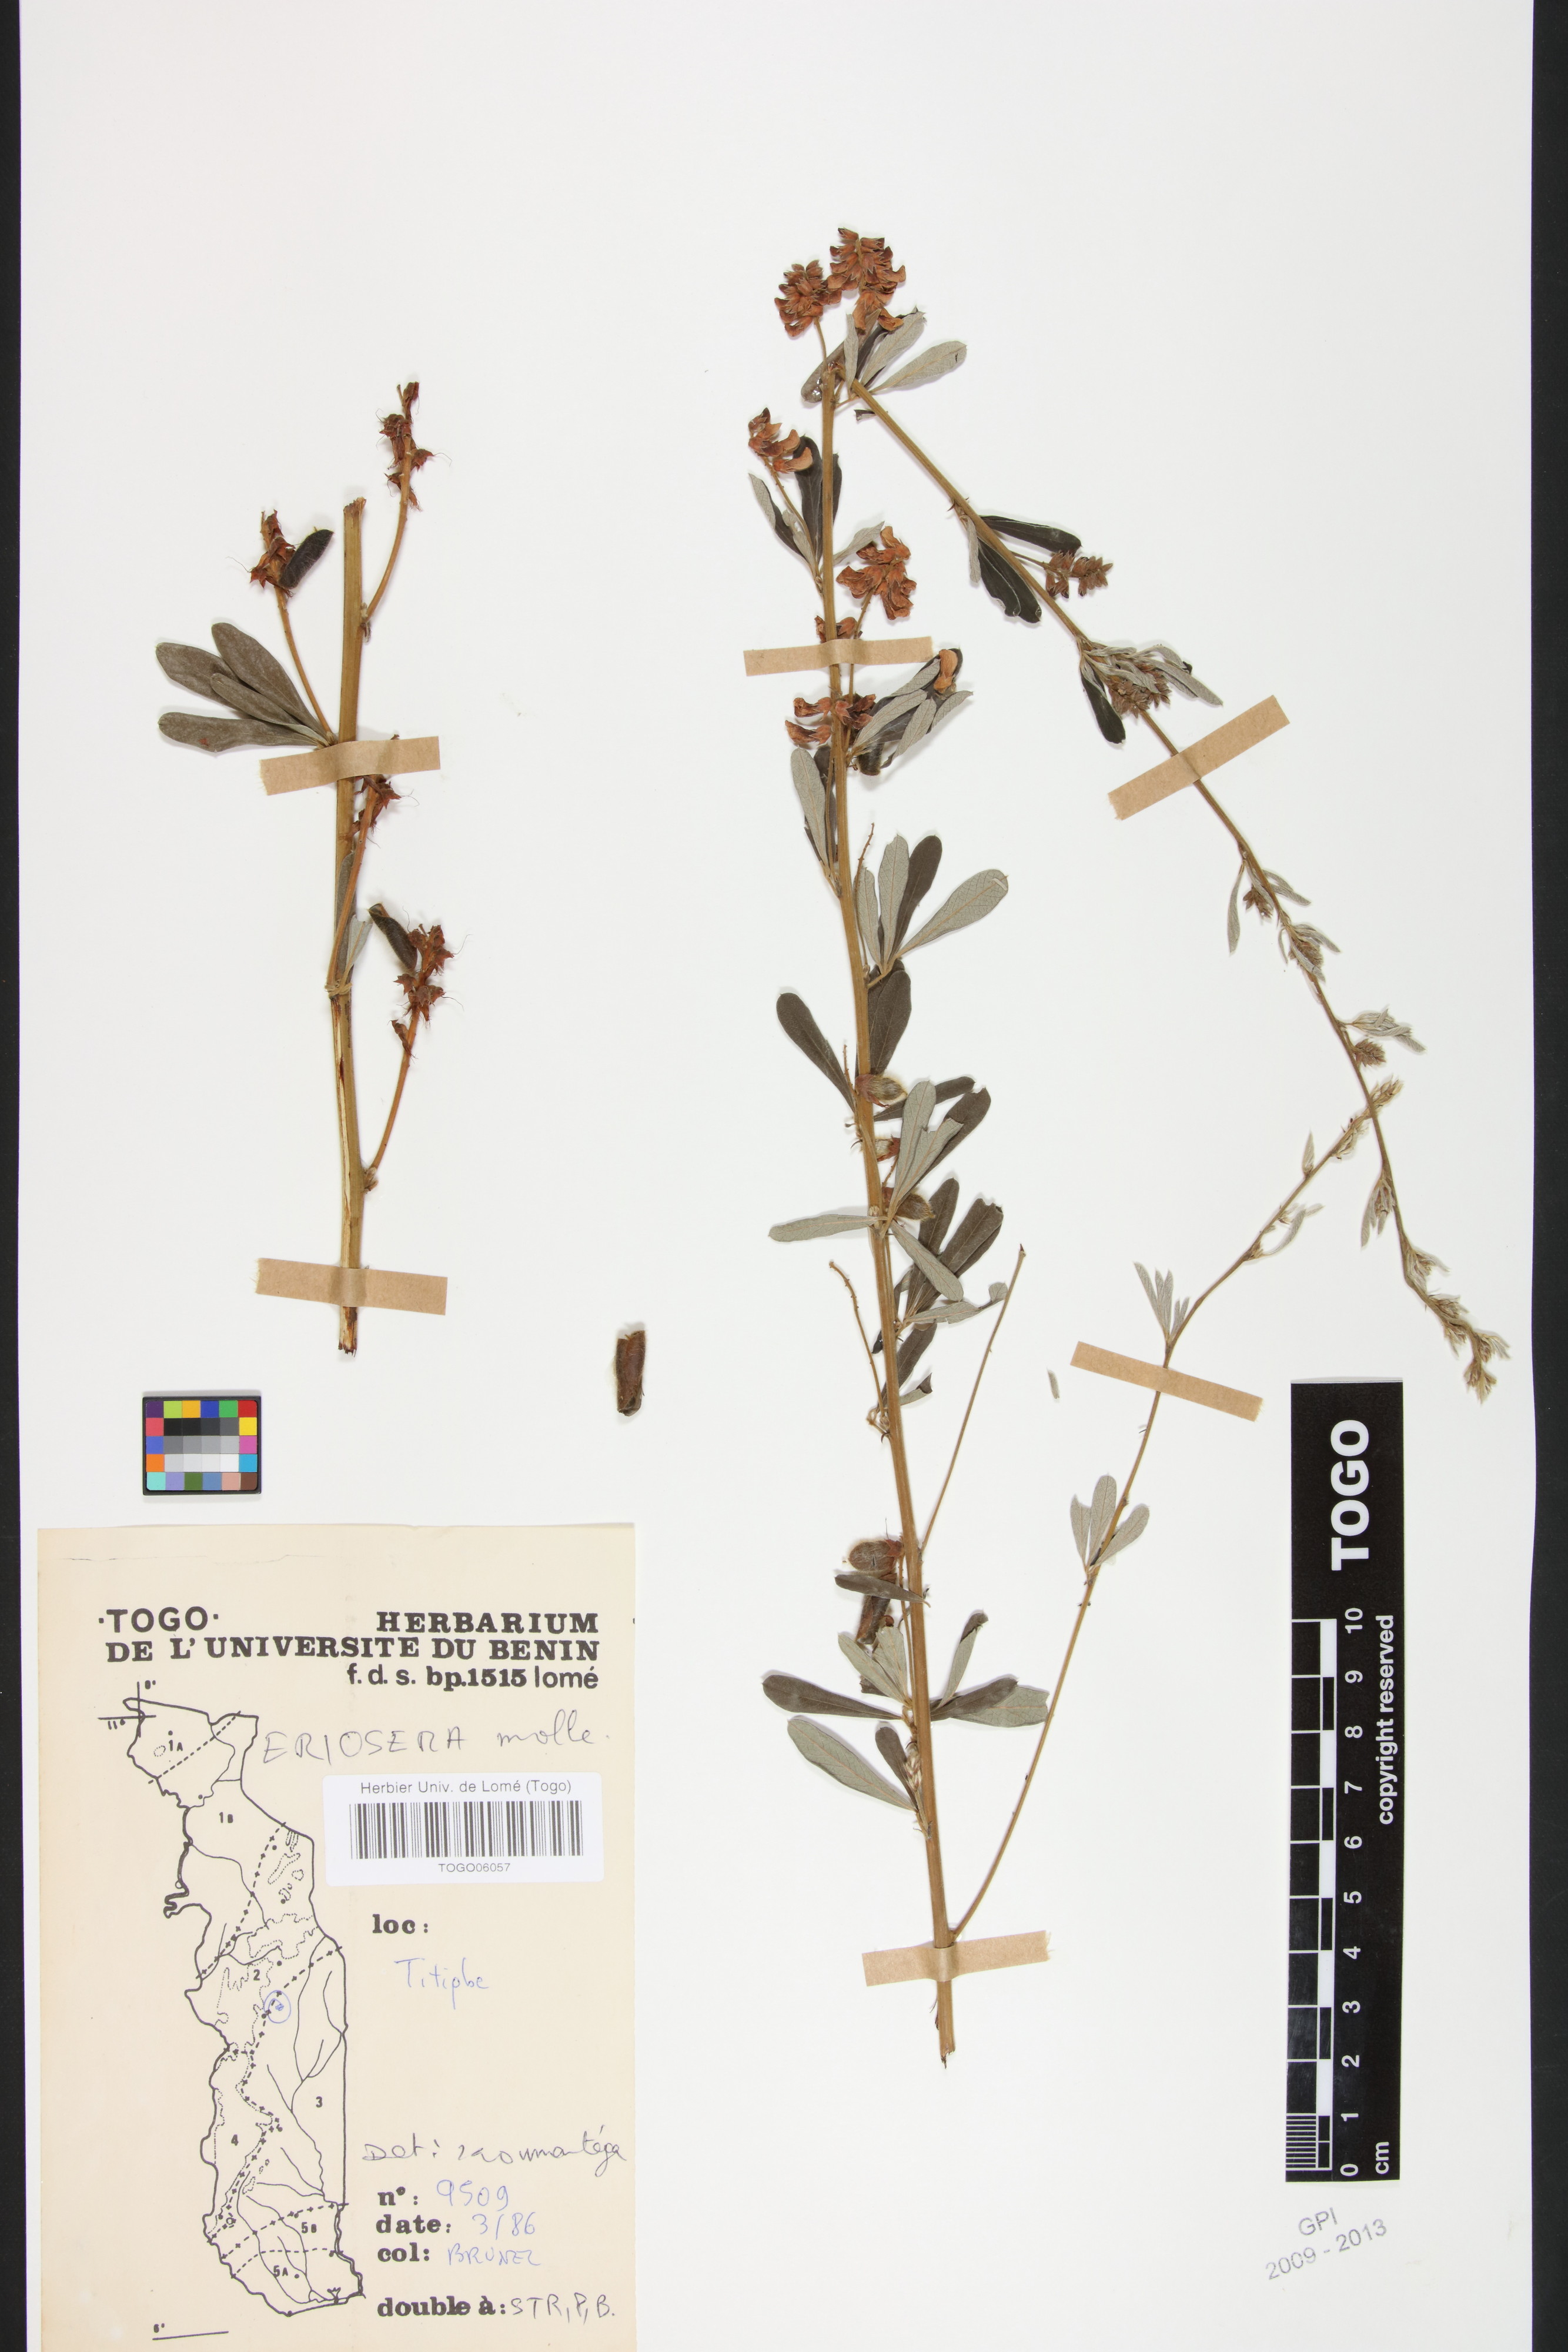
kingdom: Plantae
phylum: Tracheophyta
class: Magnoliopsida
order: Fabales
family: Fabaceae
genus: Eriosema
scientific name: Eriosema molle
